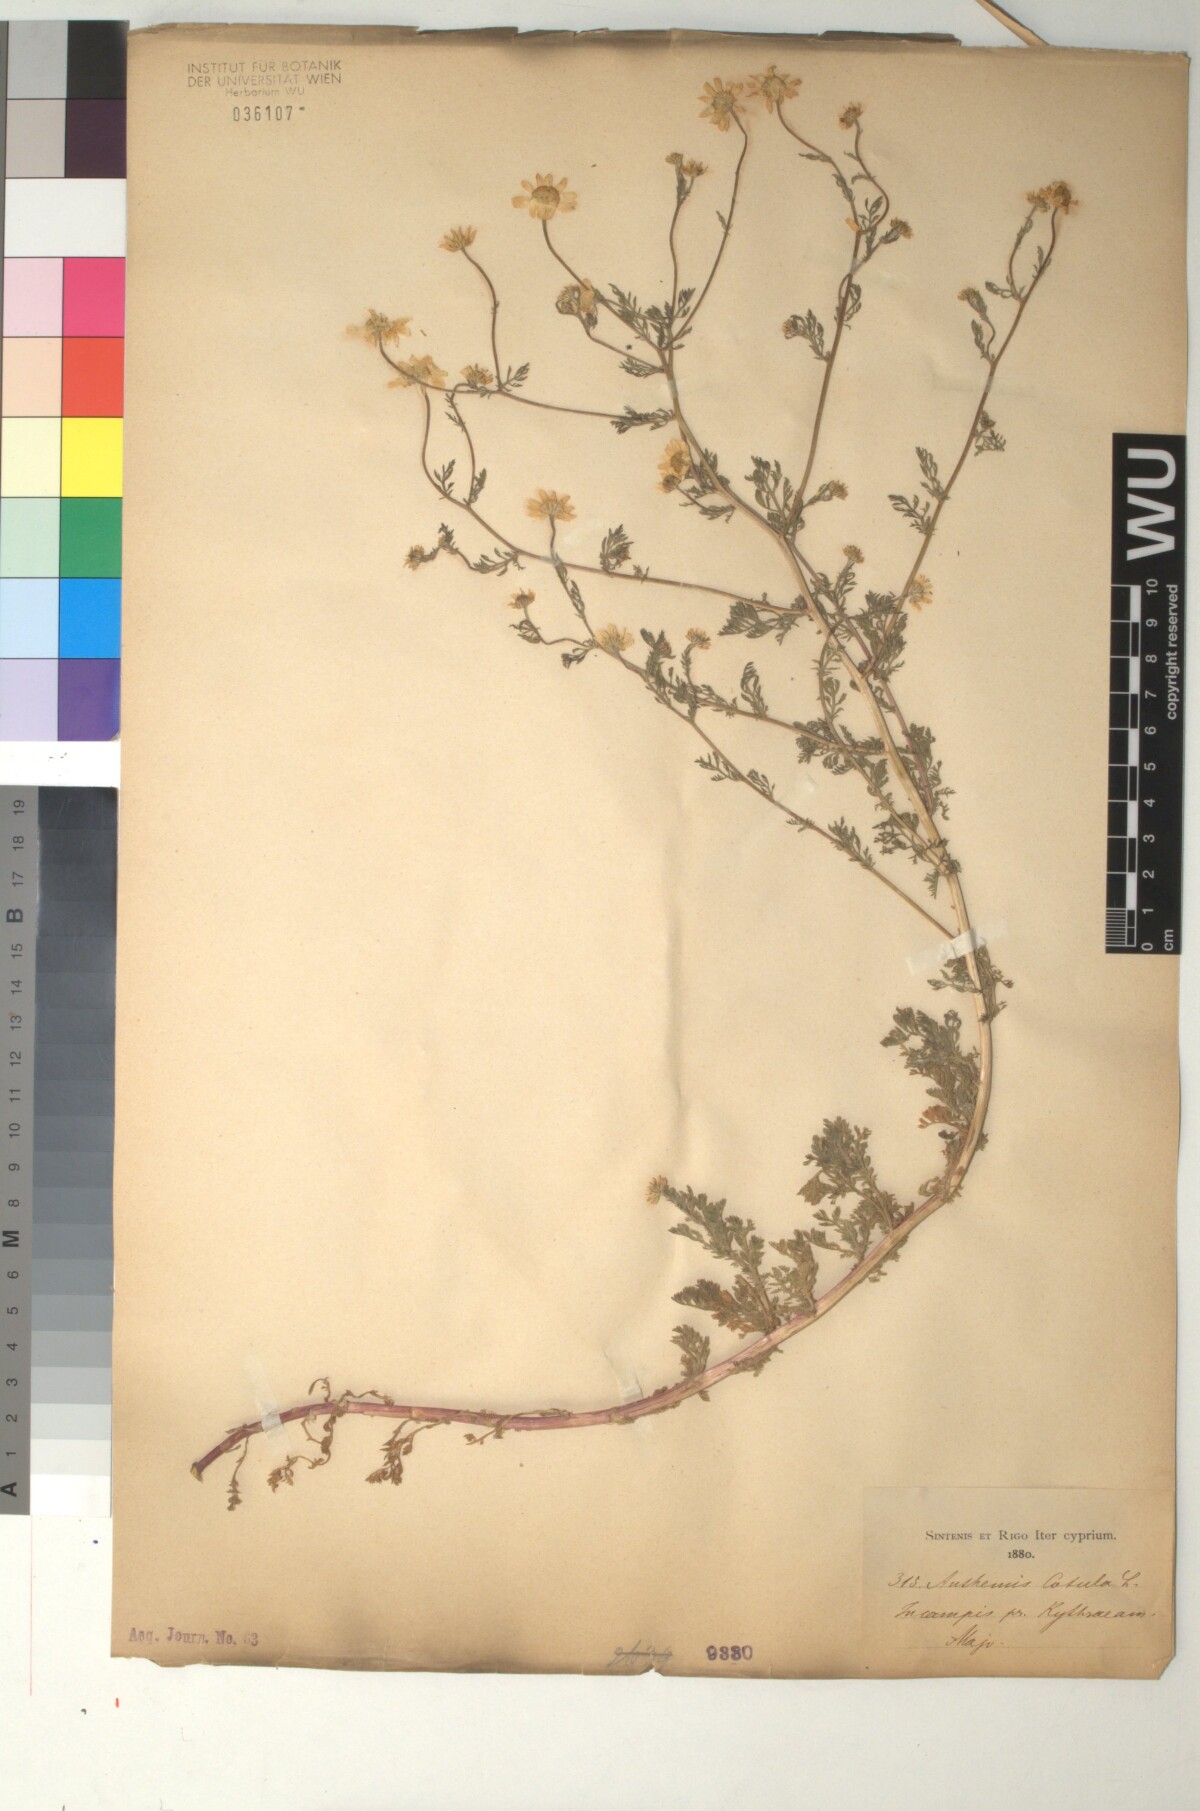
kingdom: Plantae
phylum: Tracheophyta
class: Magnoliopsida
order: Asterales
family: Asteraceae
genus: Anthemis
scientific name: Anthemis cotula
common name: Stinking chamomile
